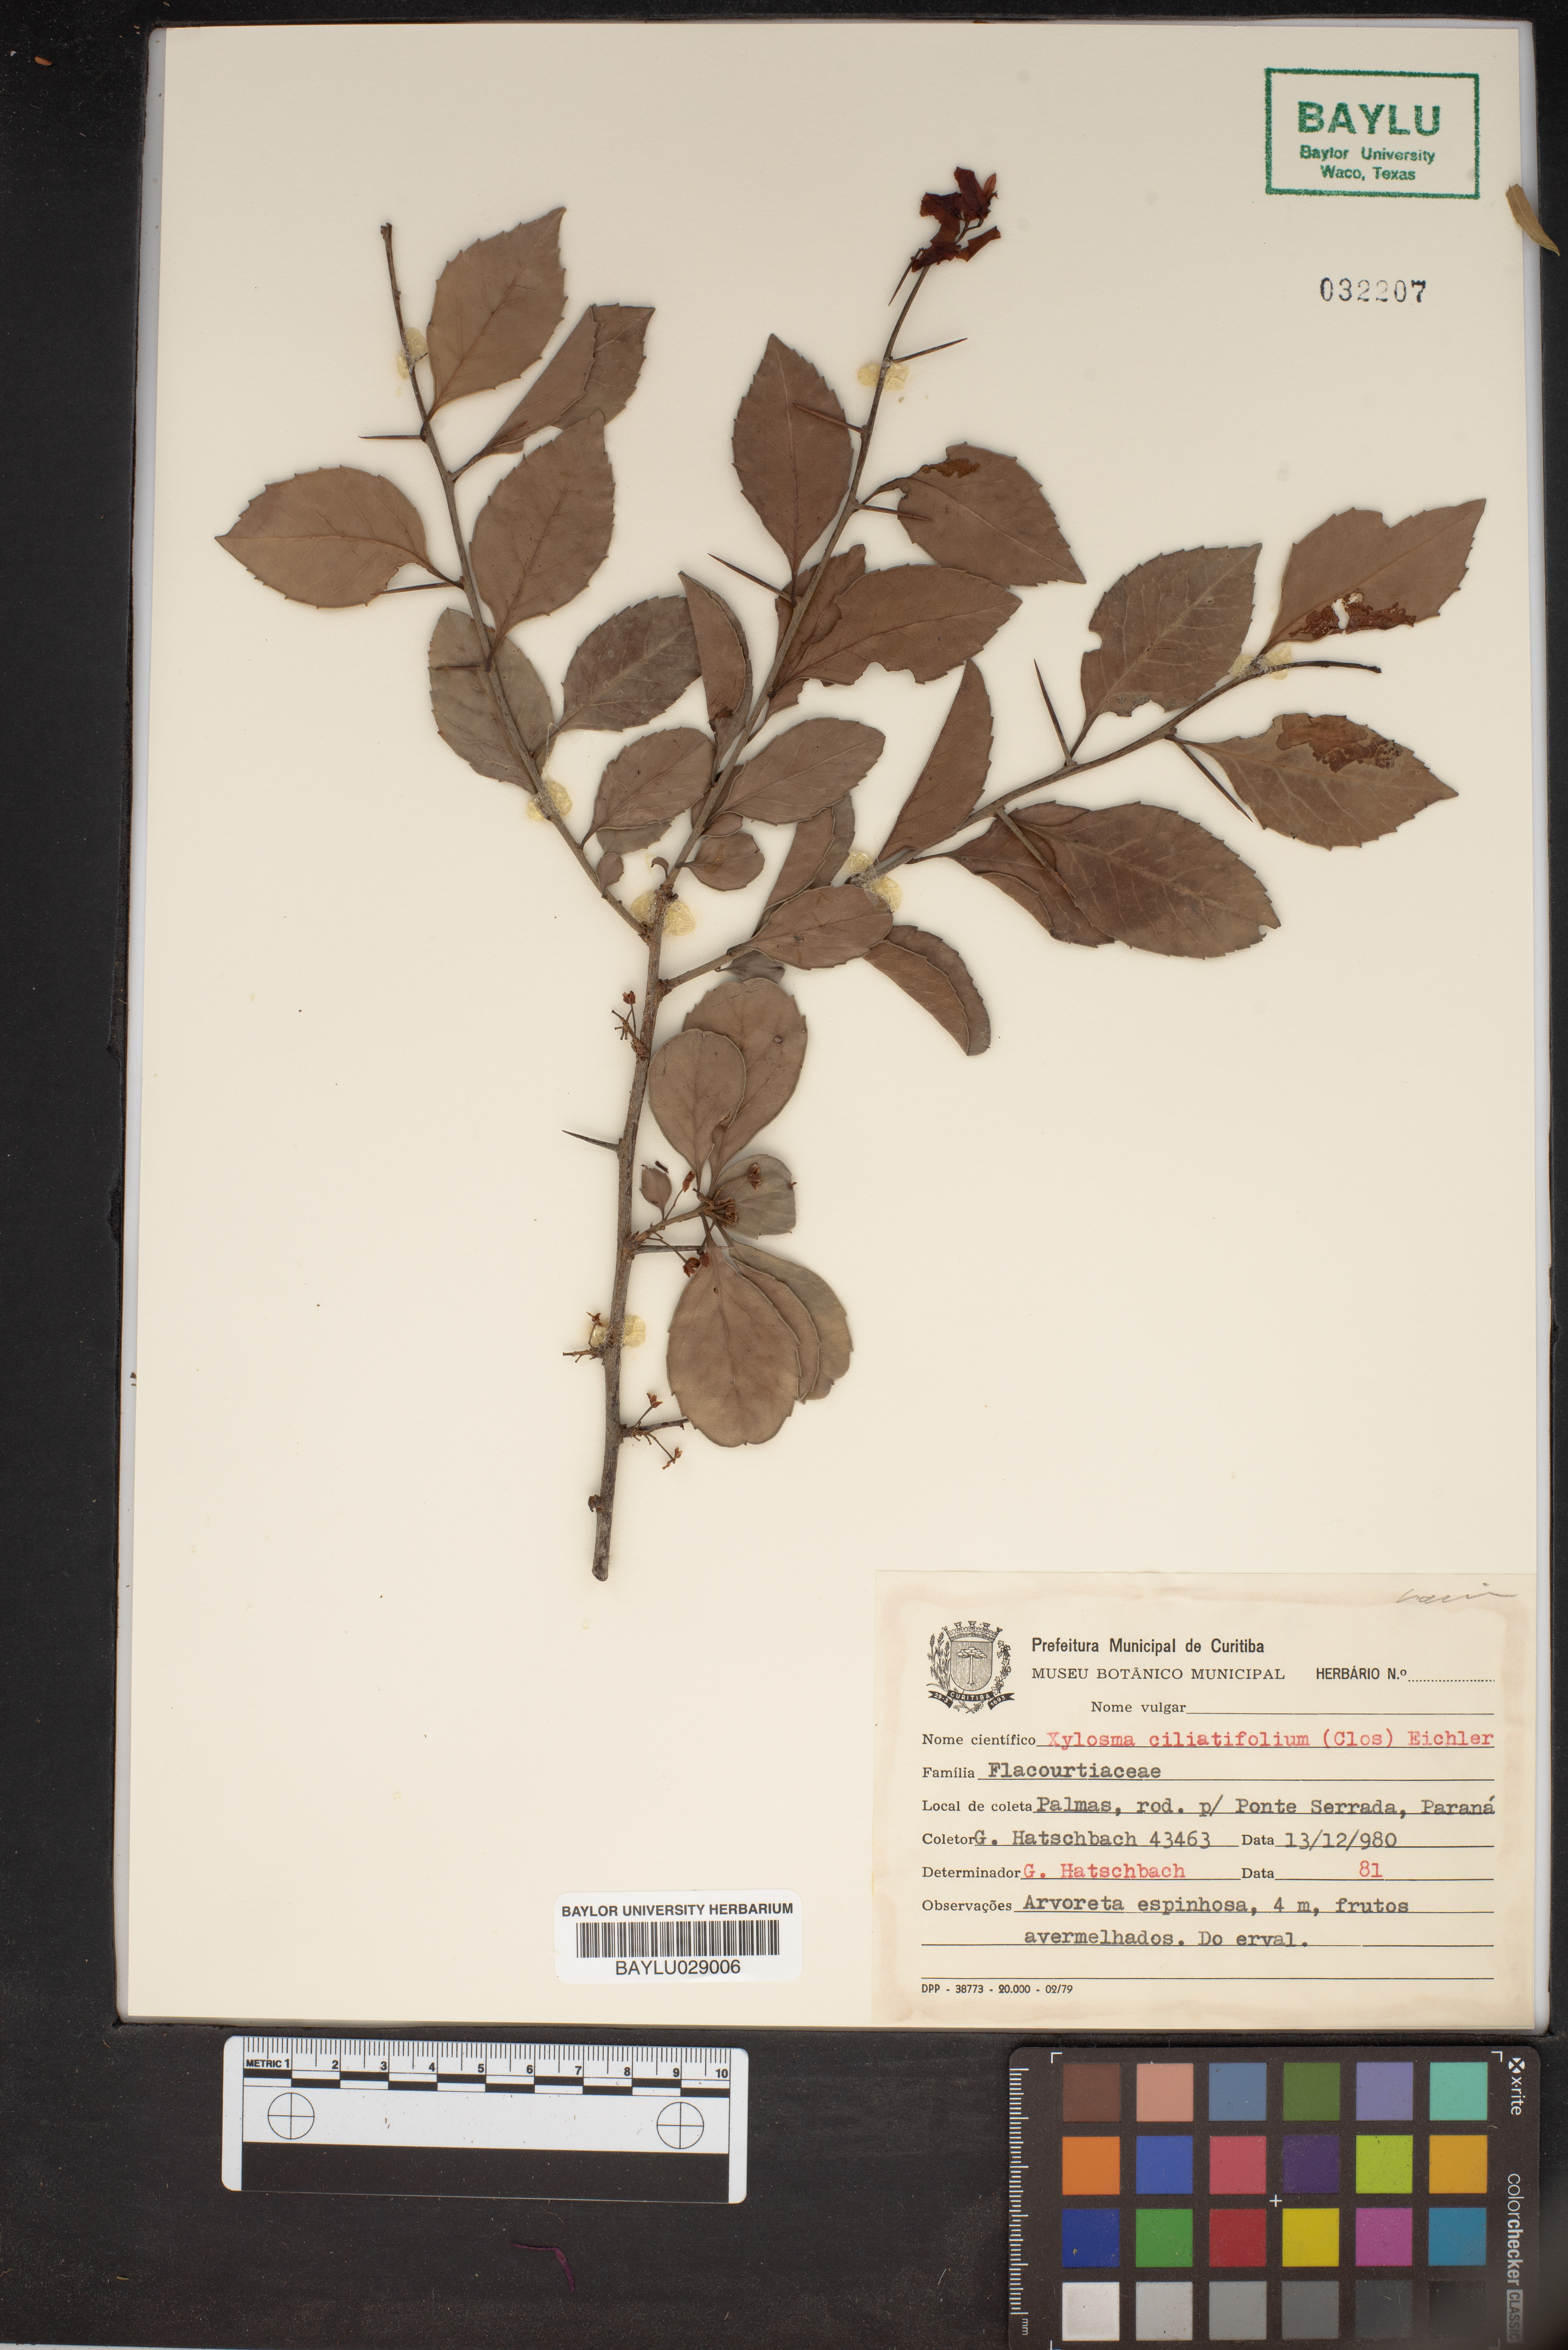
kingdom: Plantae
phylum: Tracheophyta
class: Magnoliopsida
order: Malpighiales
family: Salicaceae
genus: Xylosma
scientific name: Xylosma ciliatifolia
